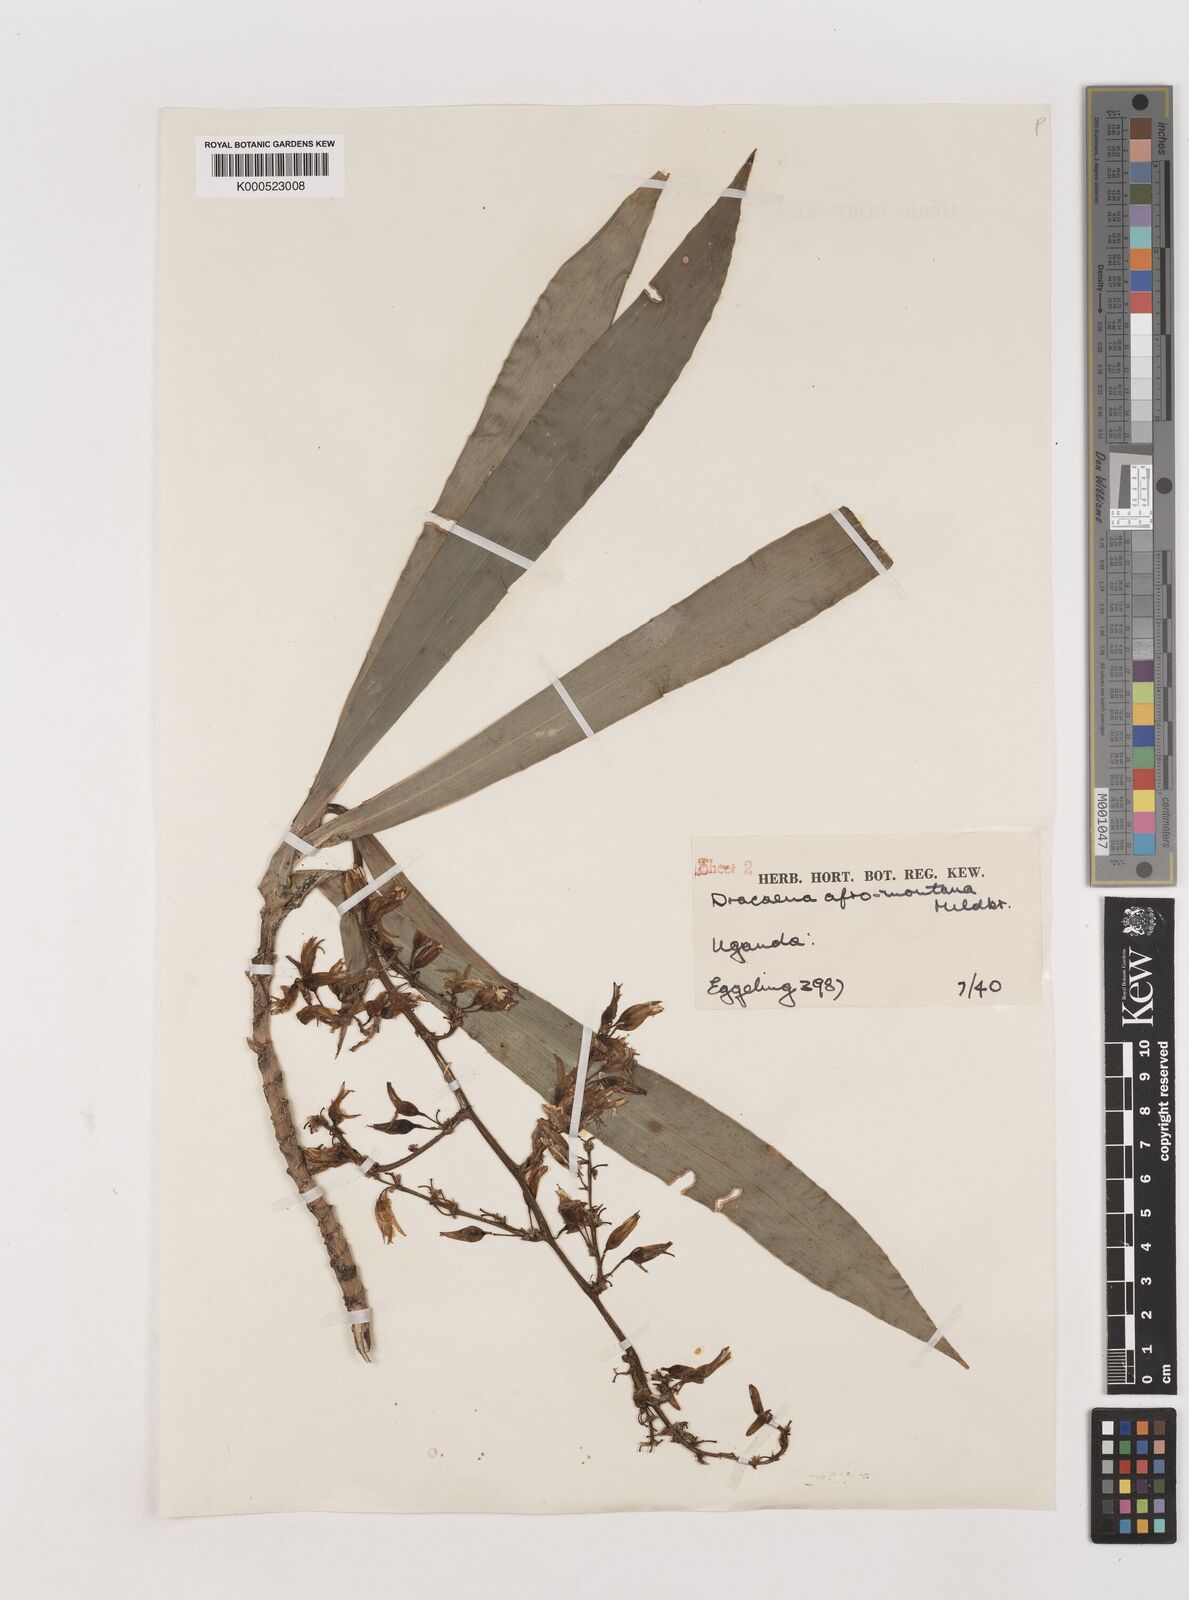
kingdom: Plantae
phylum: Tracheophyta
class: Liliopsida
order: Asparagales
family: Asparagaceae
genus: Dracaena
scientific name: Dracaena afromontana
